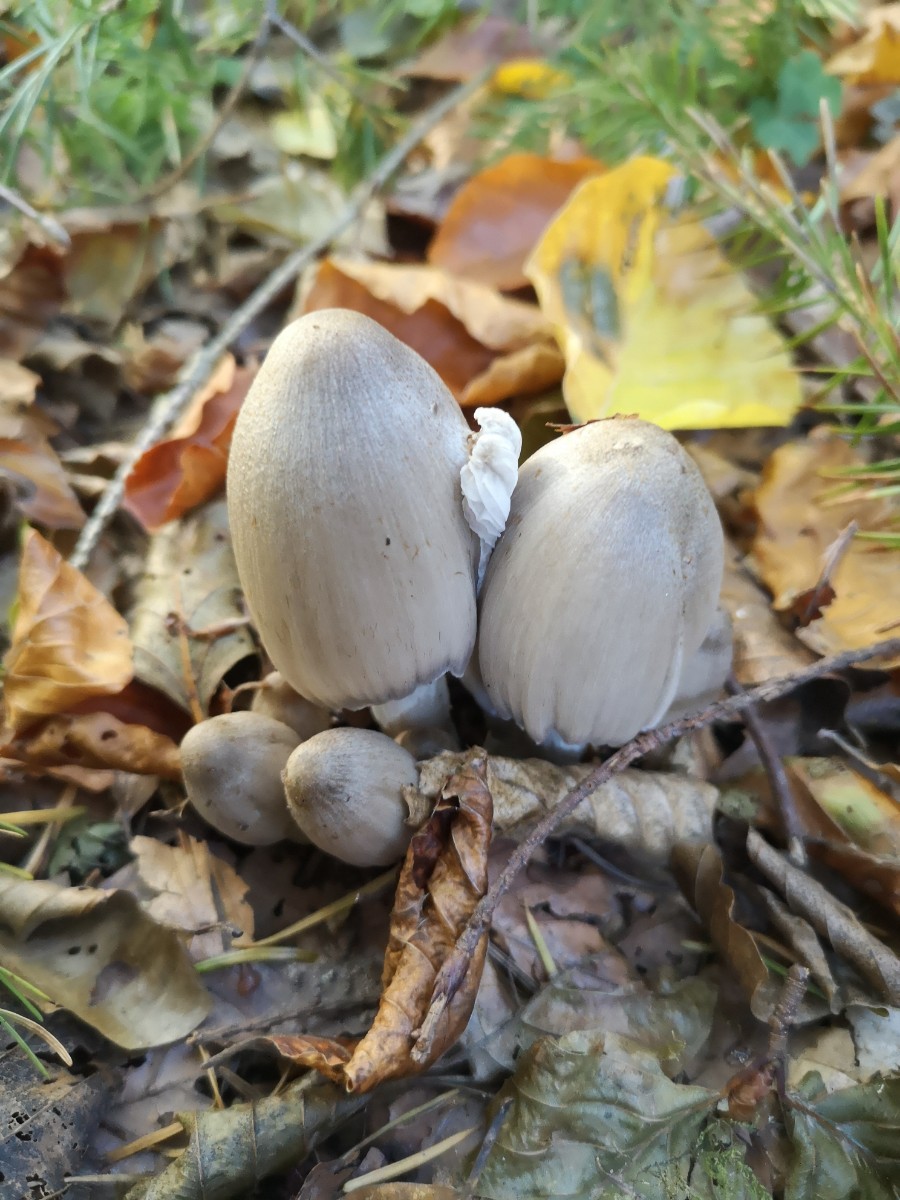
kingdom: Fungi
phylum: Basidiomycota
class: Agaricomycetes
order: Agaricales
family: Psathyrellaceae
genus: Coprinopsis
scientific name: Coprinopsis atramentaria
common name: almindelig blækhat
